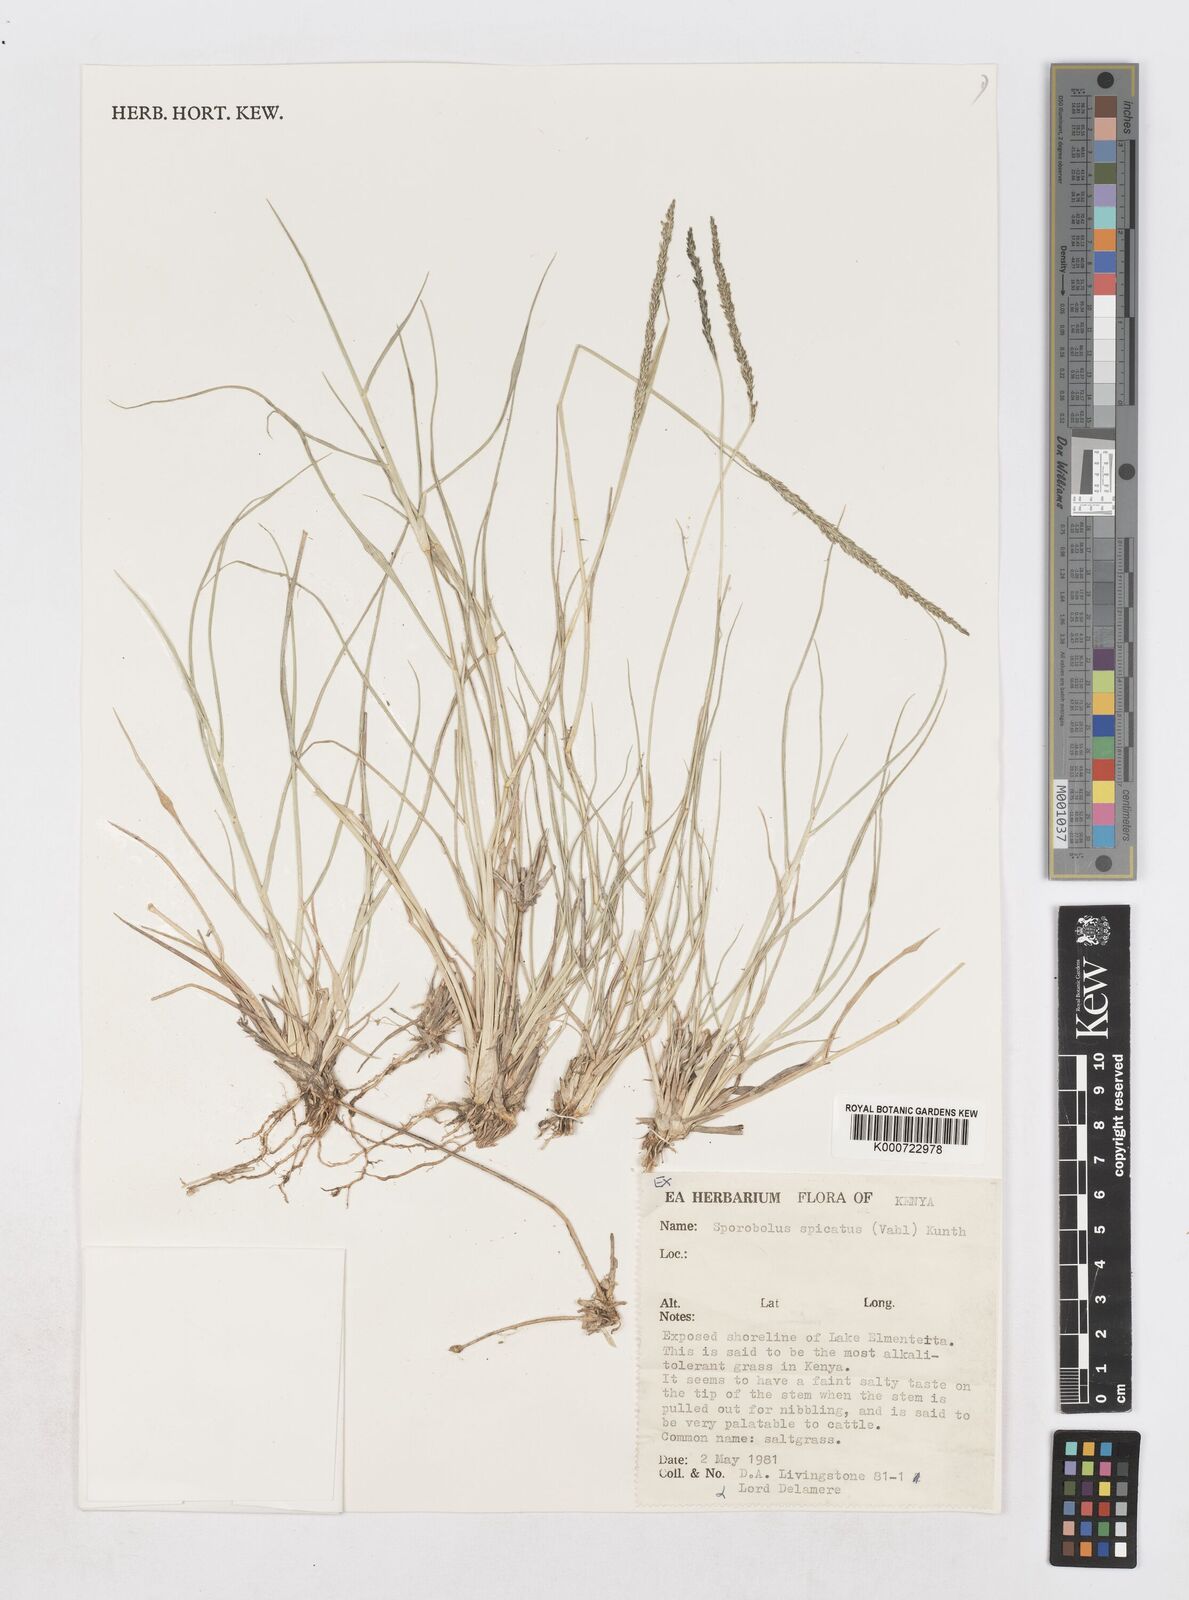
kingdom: Plantae
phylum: Tracheophyta
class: Liliopsida
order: Poales
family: Poaceae
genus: Sporobolus
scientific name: Sporobolus spicatus
